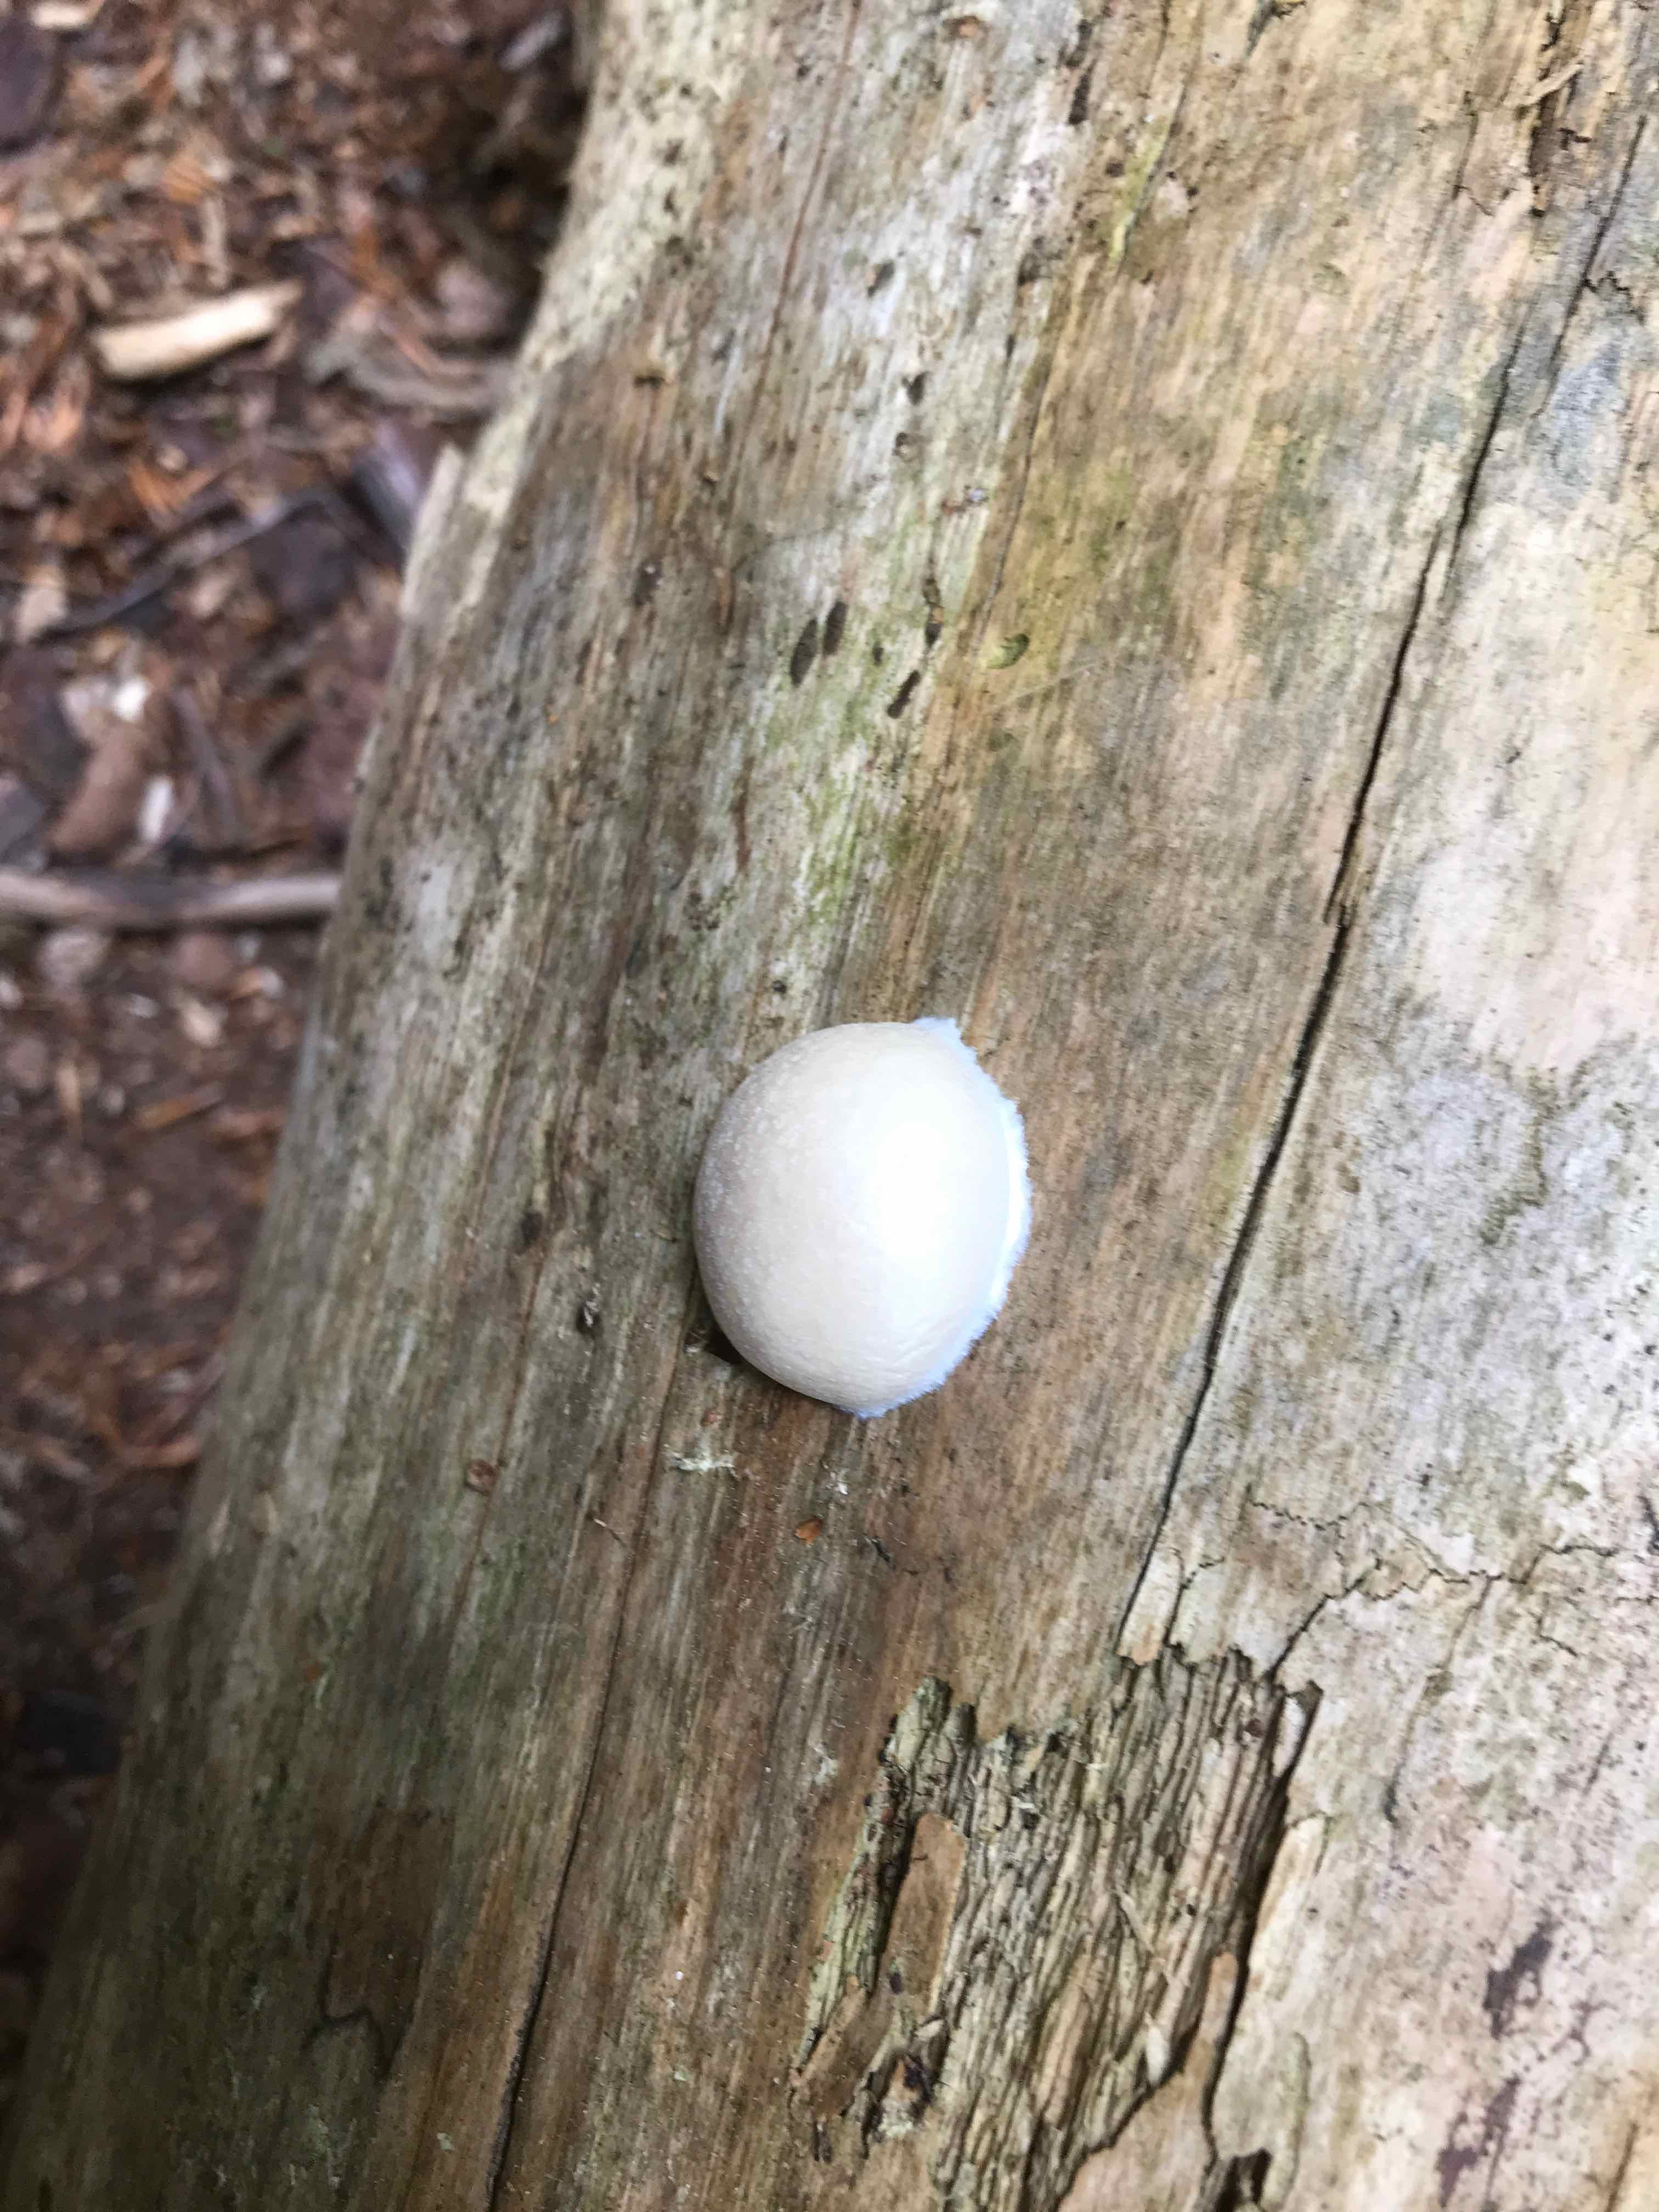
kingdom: Protozoa
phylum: Mycetozoa
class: Myxomycetes
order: Cribrariales
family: Tubiferaceae
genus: Reticularia
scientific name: Reticularia lycoperdon
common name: skinnende støvpude
